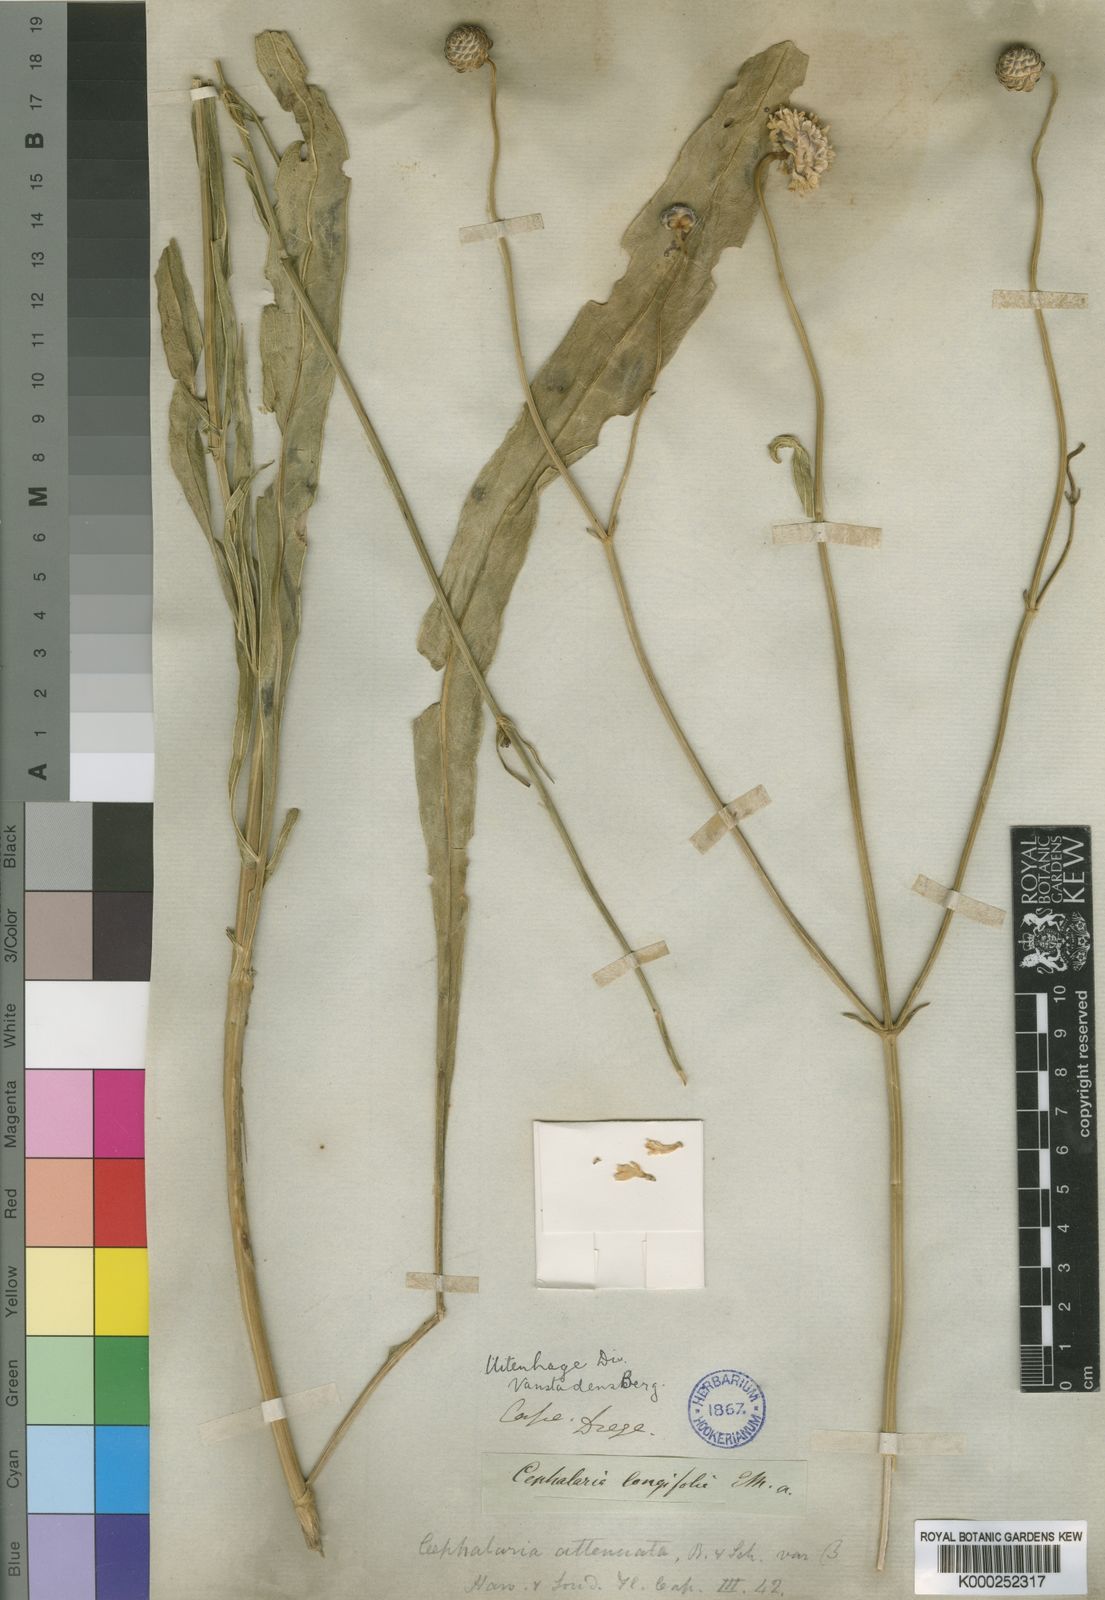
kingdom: Plantae
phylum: Tracheophyta
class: Magnoliopsida
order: Dipsacales
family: Caprifoliaceae
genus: Cephalaria
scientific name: Cephalaria humilis
